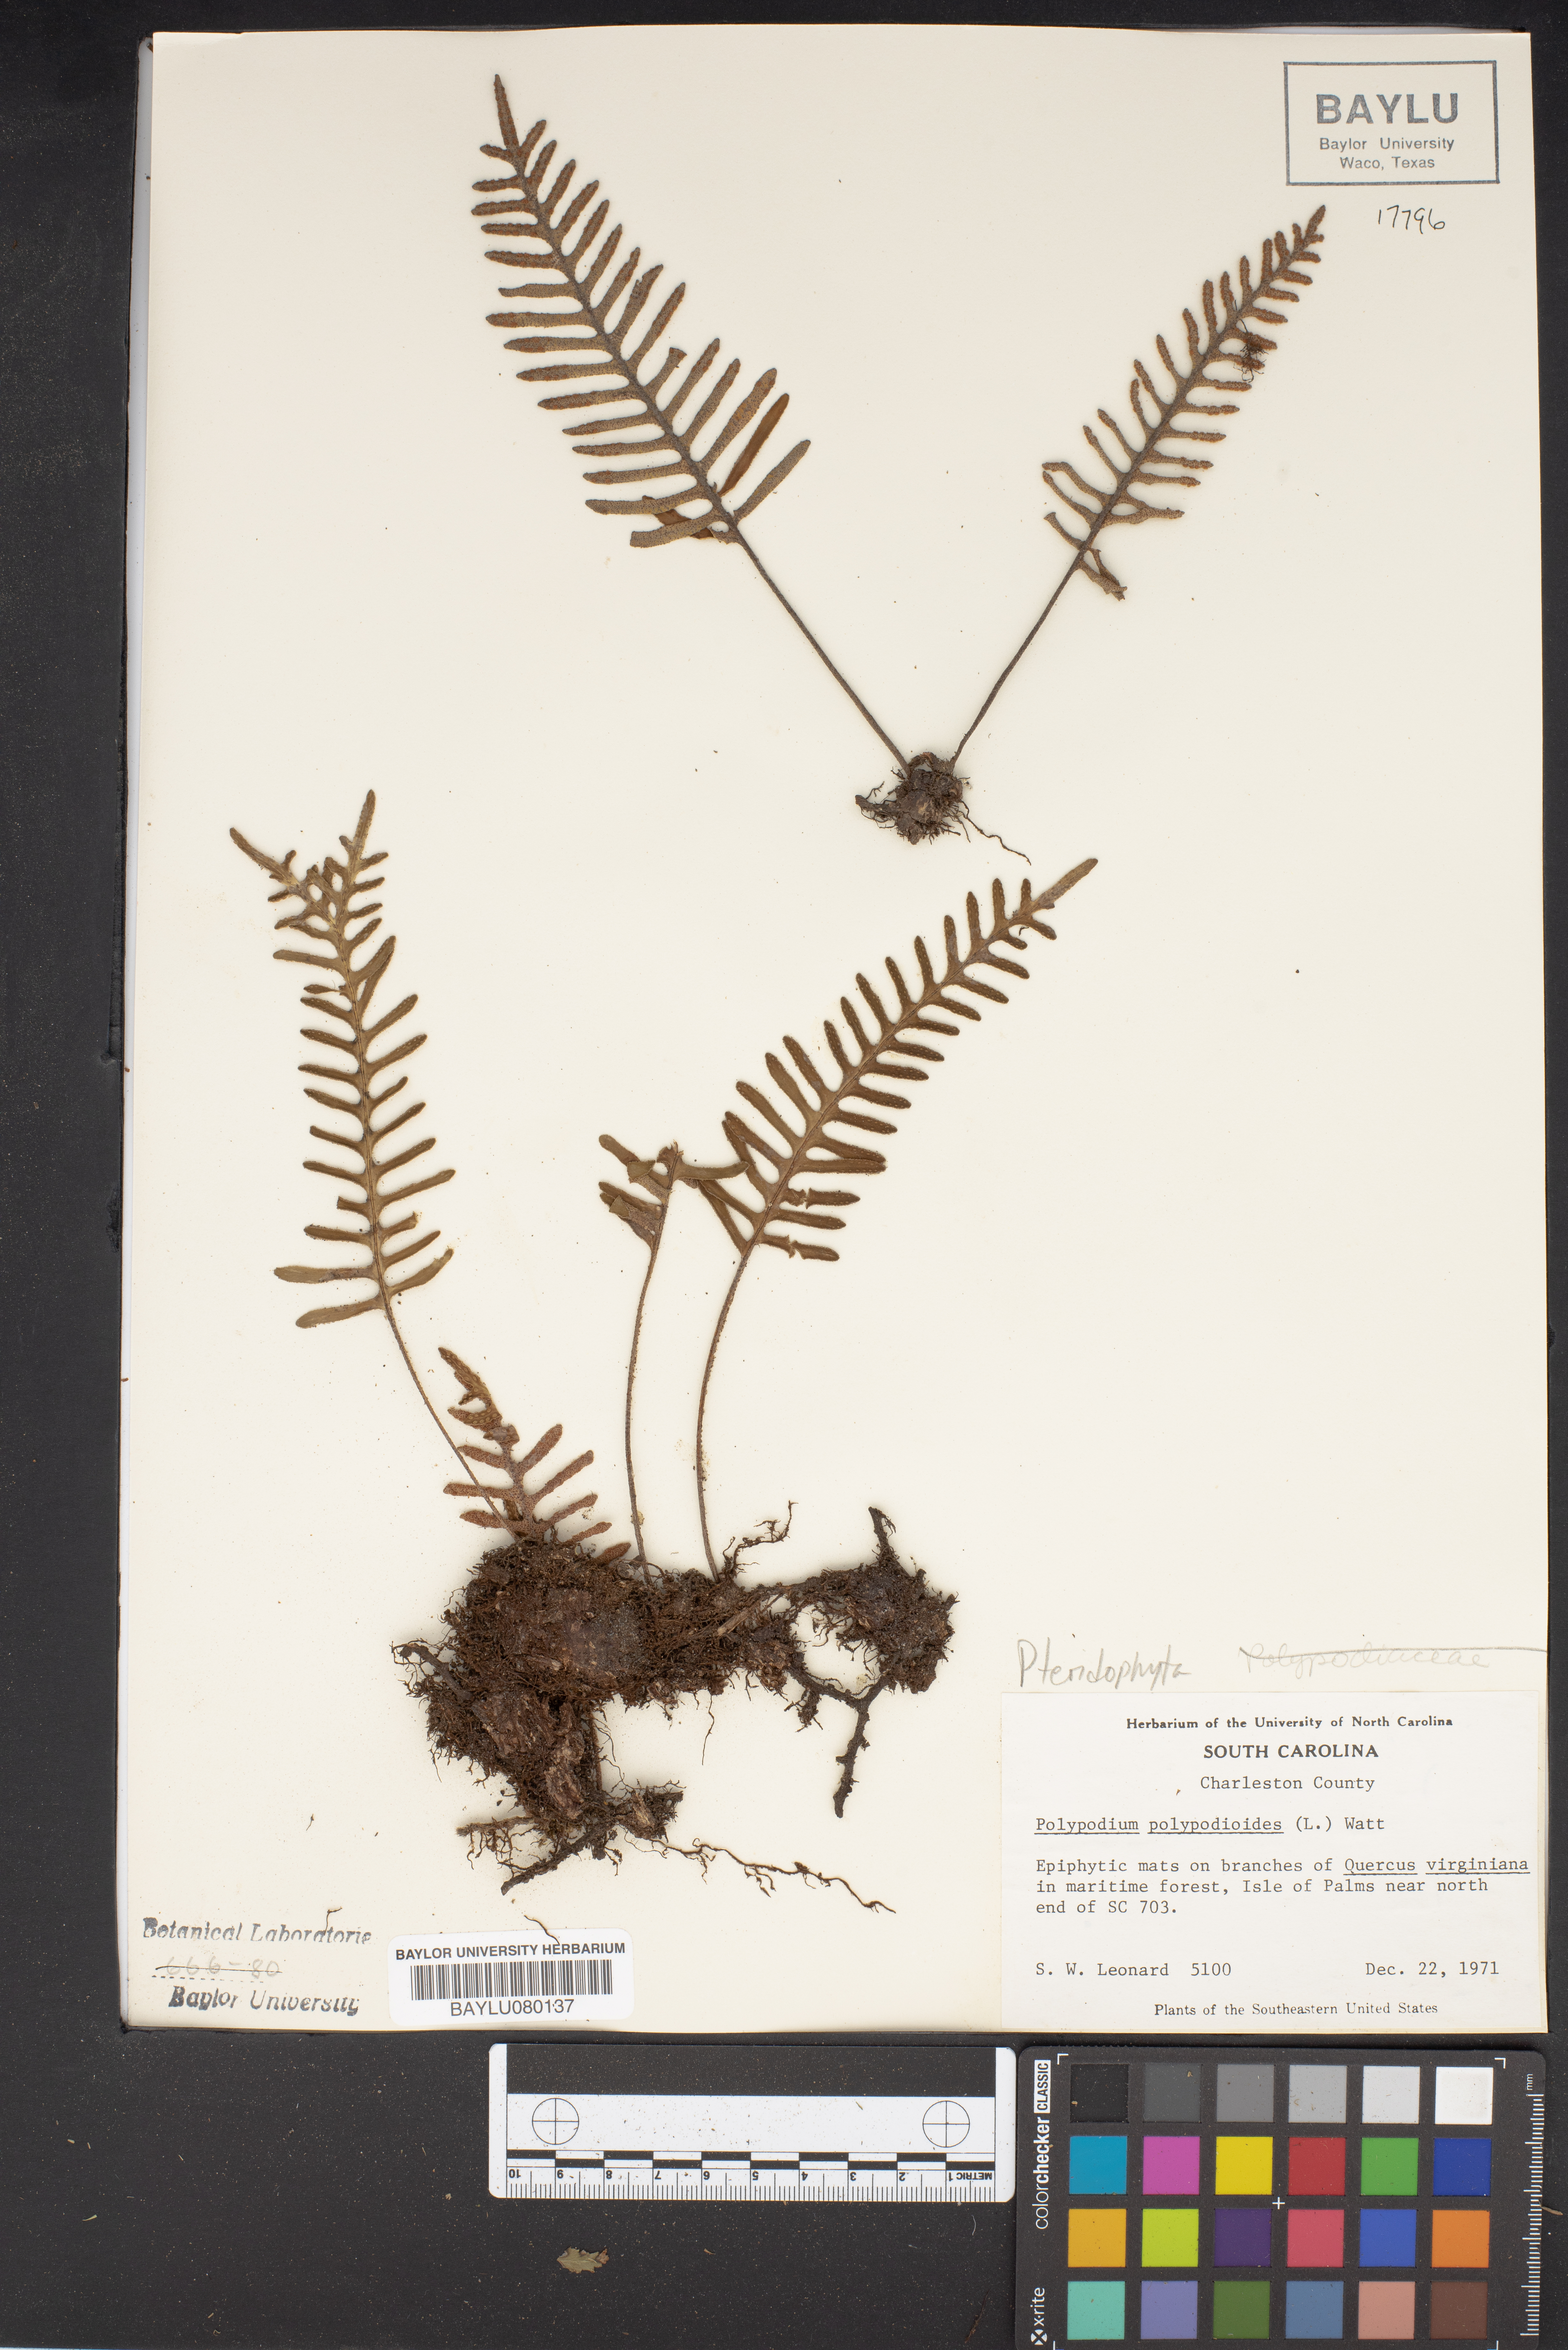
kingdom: Plantae
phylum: Tracheophyta
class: Polypodiopsida
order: Polypodiales
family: Polypodiaceae
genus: Pleopeltis
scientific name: Pleopeltis polypodioides
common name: Resurrection fern
